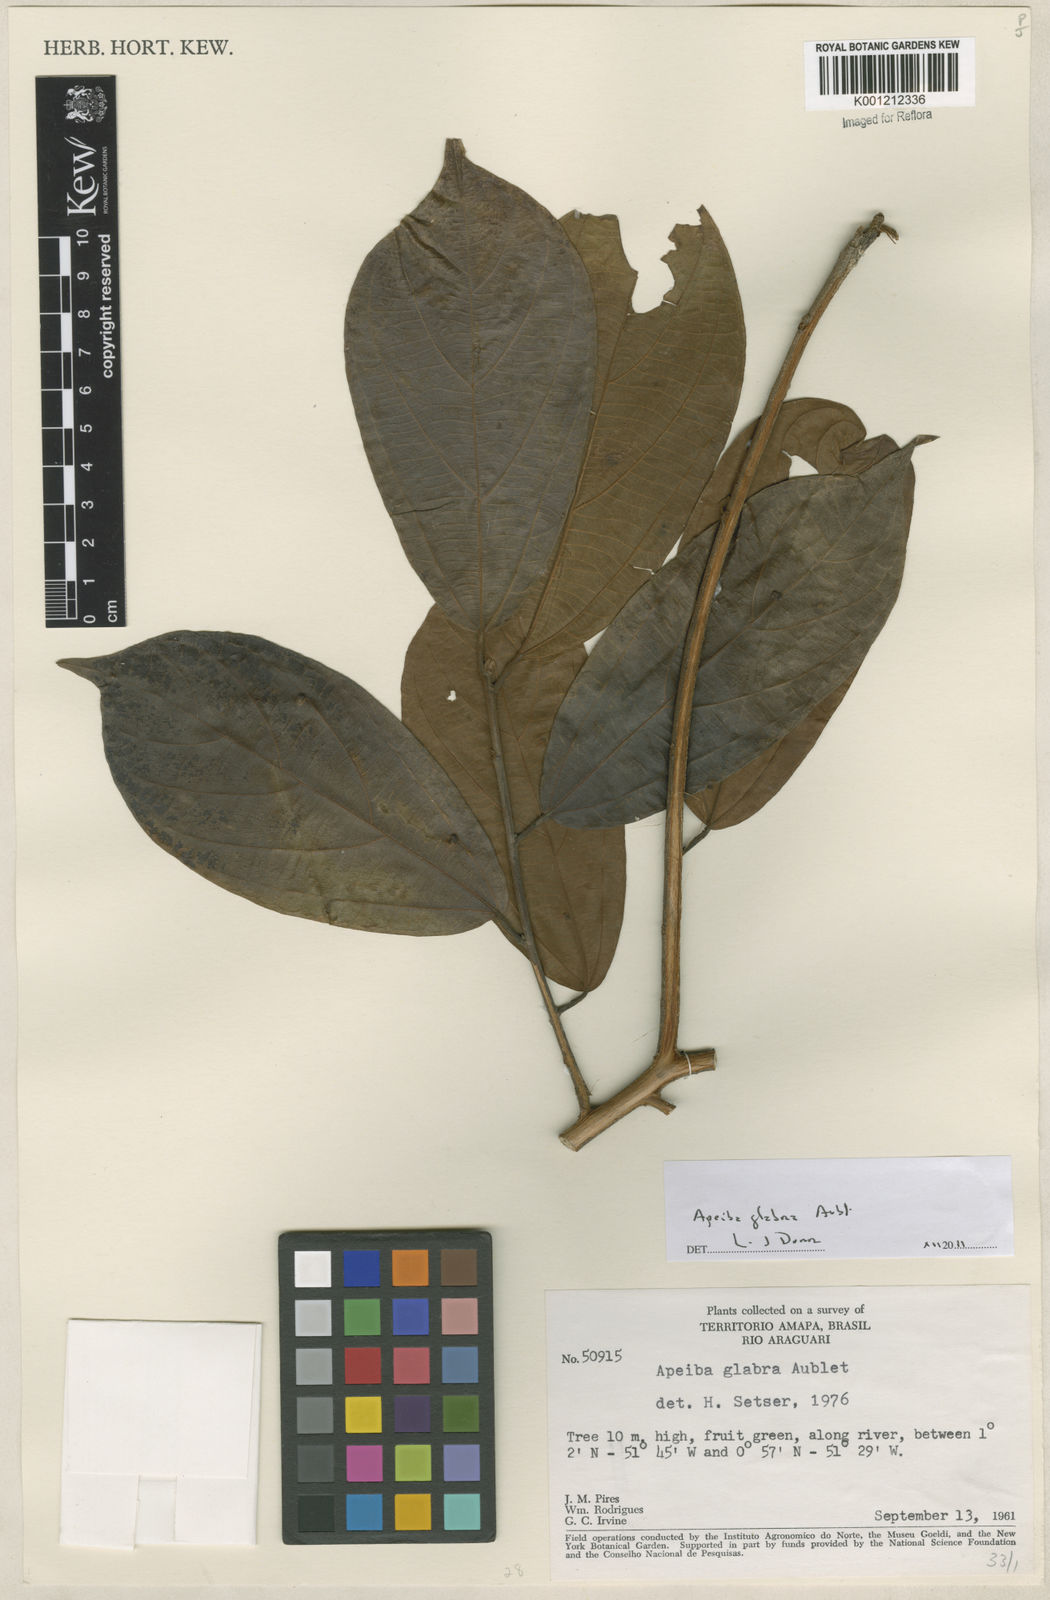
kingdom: Plantae
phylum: Tracheophyta
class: Magnoliopsida
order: Malvales
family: Malvaceae
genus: Apeiba
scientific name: Apeiba glabra
